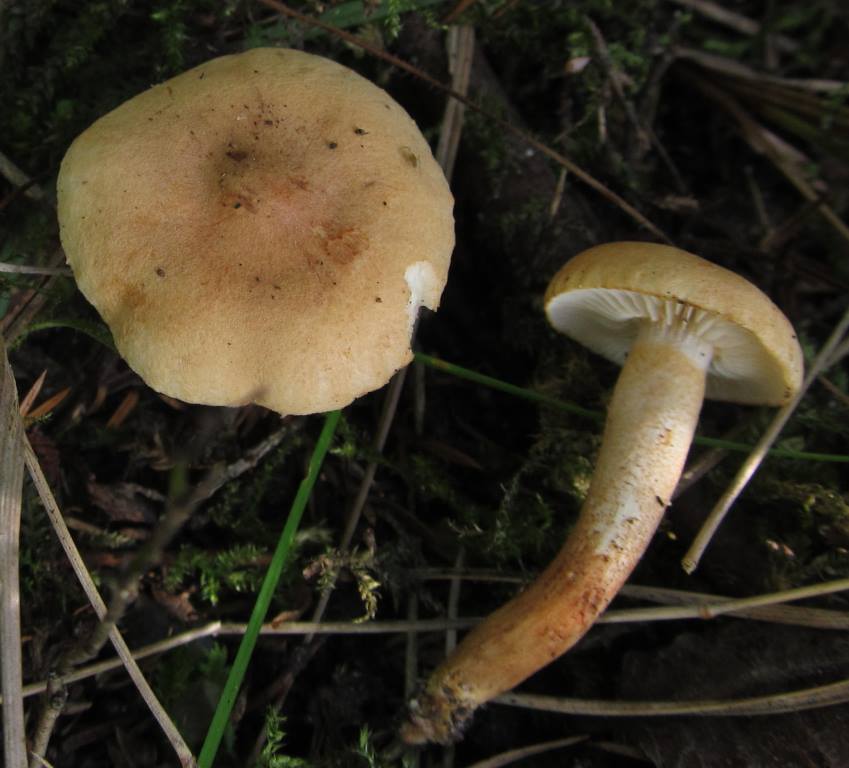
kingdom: Fungi
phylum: Basidiomycota
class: Agaricomycetes
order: Agaricales
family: Tricholomataceae
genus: Tricholoma
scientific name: Tricholoma psammopus
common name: grynstokket ridderhat
